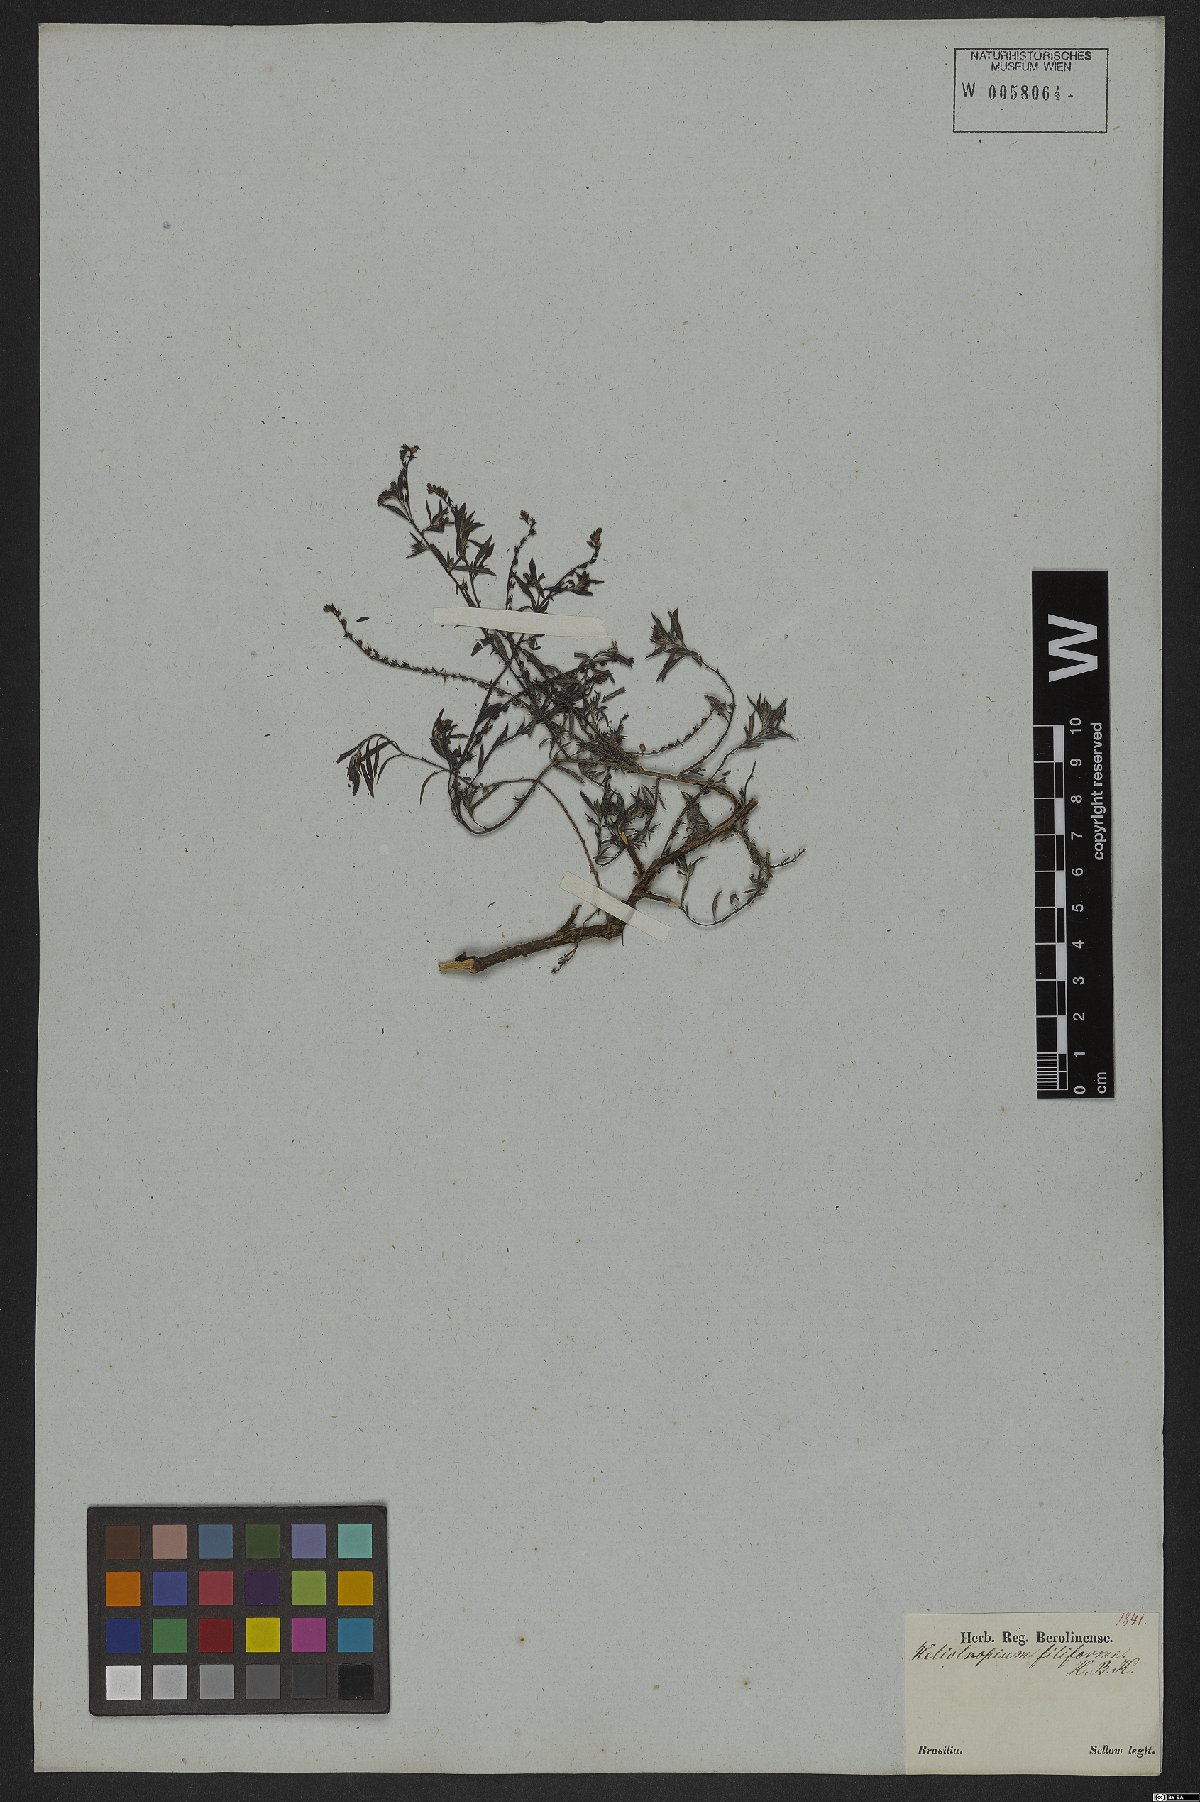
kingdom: Plantae
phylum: Tracheophyta
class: Magnoliopsida
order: Boraginales
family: Heliotropiaceae
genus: Euploca
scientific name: Euploca filiformis
